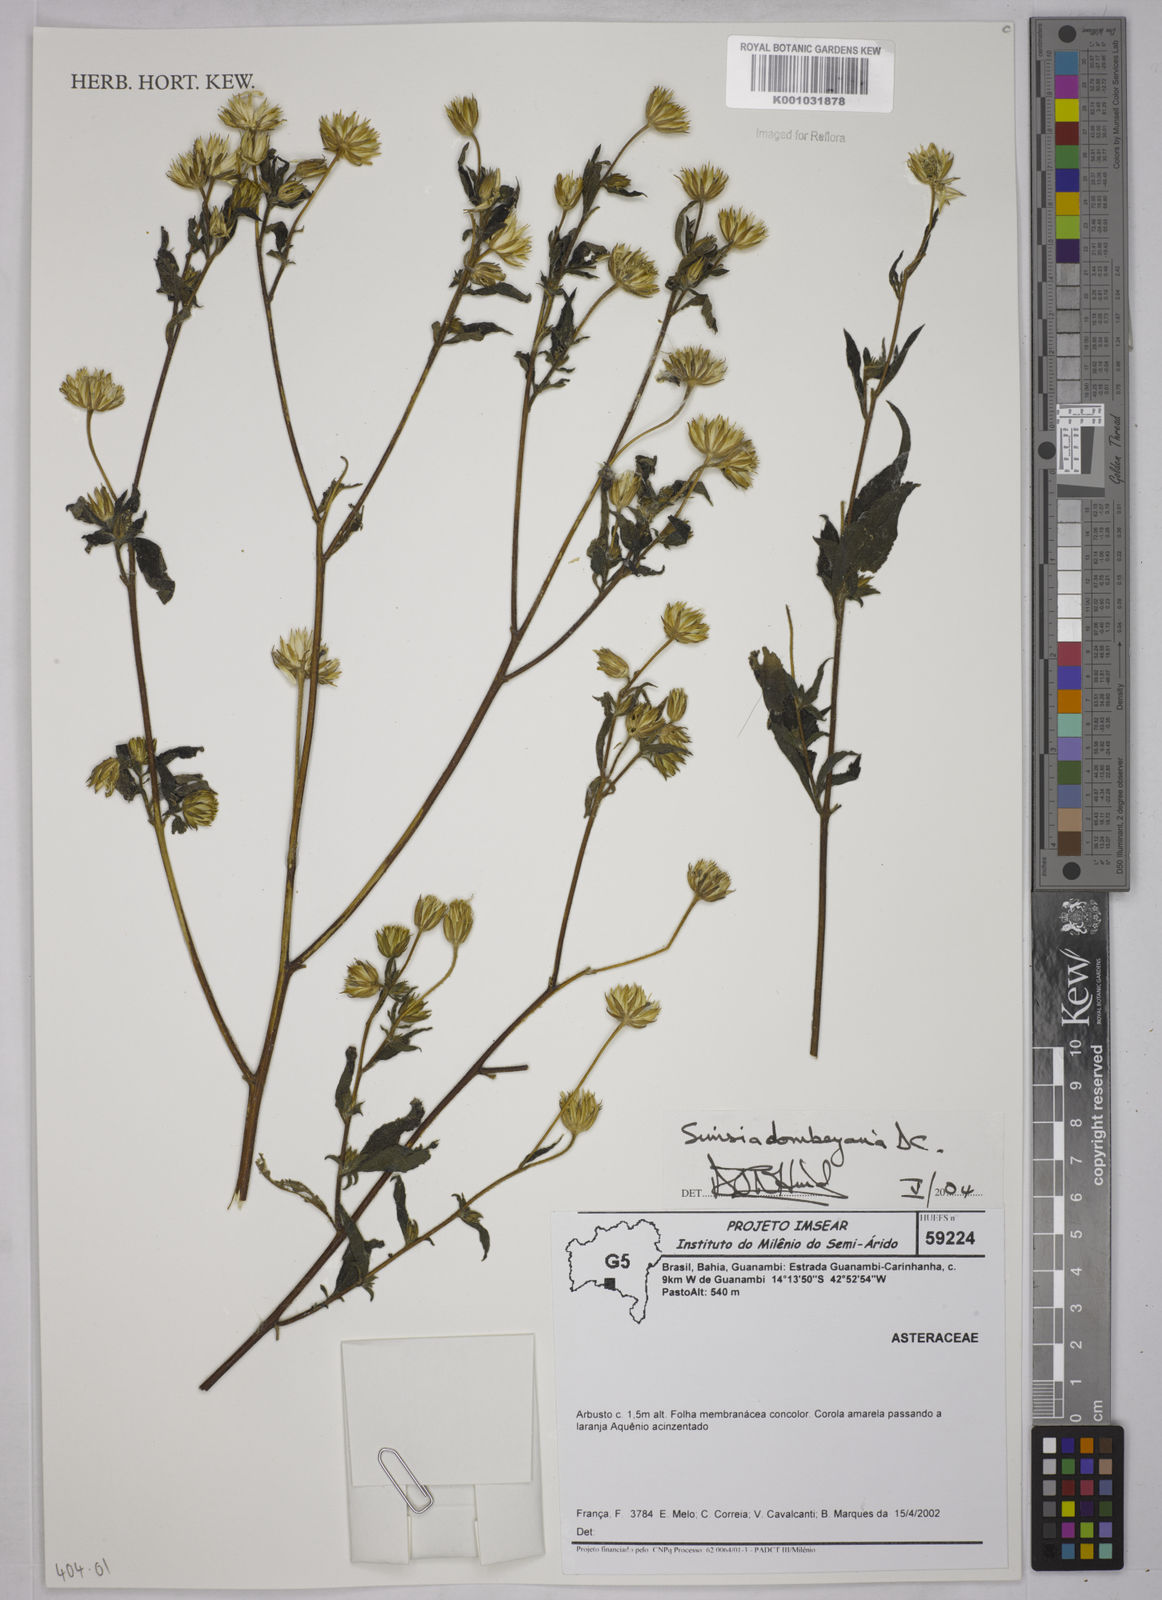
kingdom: Plantae
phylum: Tracheophyta
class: Magnoliopsida
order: Asterales
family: Asteraceae
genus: Simsia
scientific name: Simsia dombeyana
